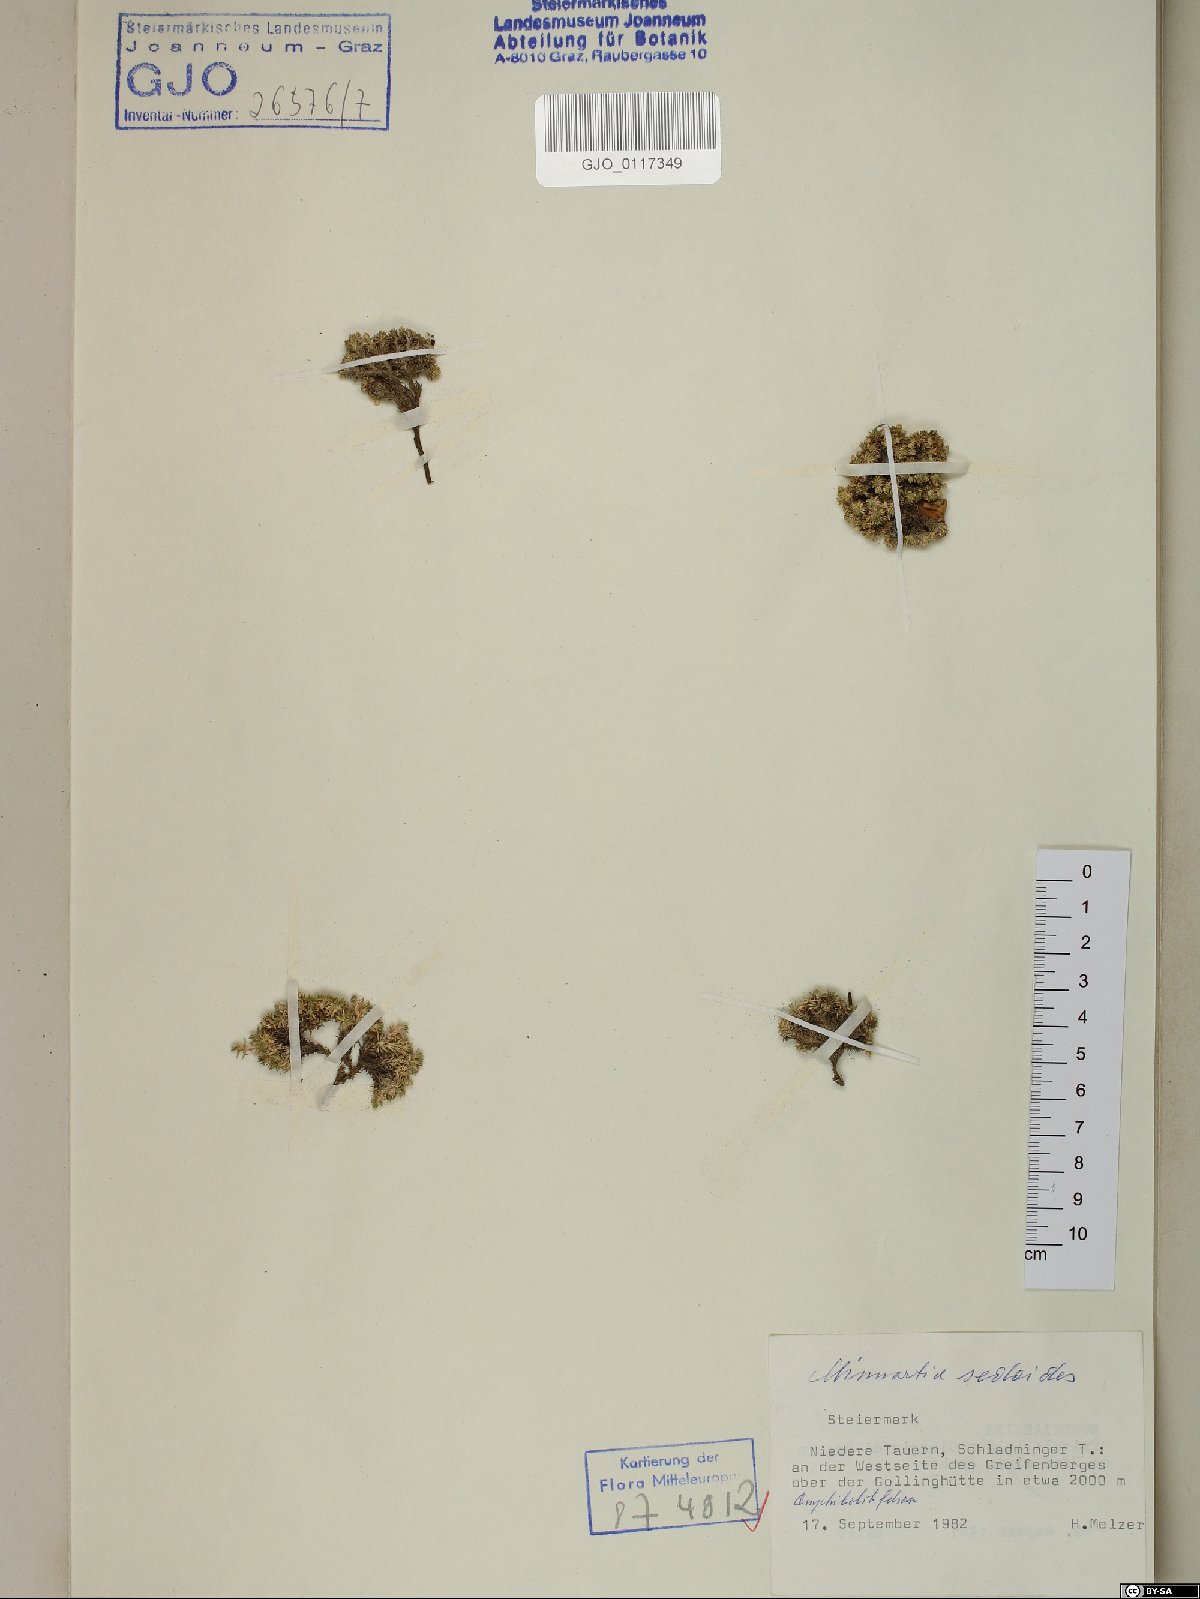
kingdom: Plantae
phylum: Tracheophyta
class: Magnoliopsida
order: Caryophyllales
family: Caryophyllaceae
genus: Cherleria
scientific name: Cherleria sedoides
